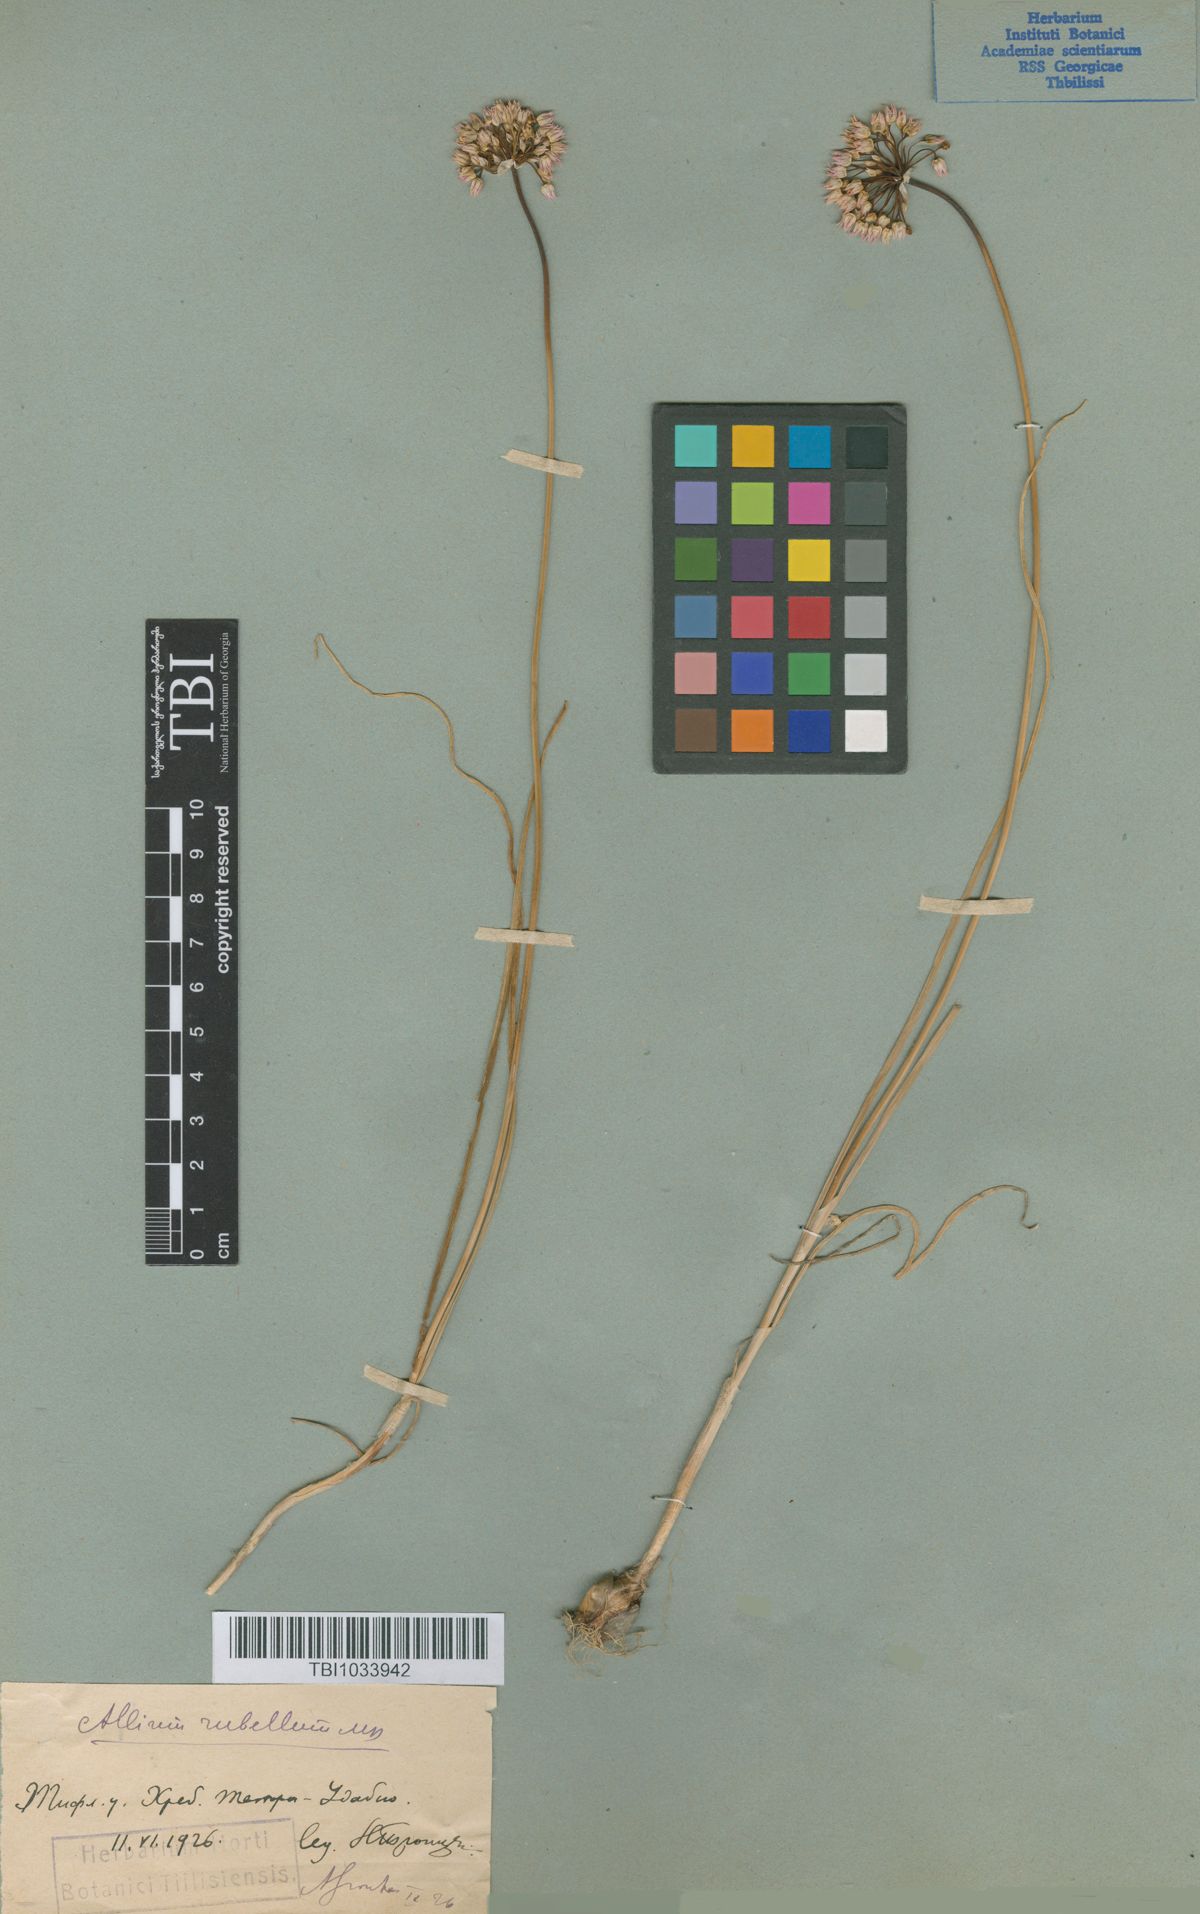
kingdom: Plantae
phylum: Tracheophyta
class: Liliopsida
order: Asparagales
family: Amaryllidaceae
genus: Allium
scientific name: Allium rubellum
